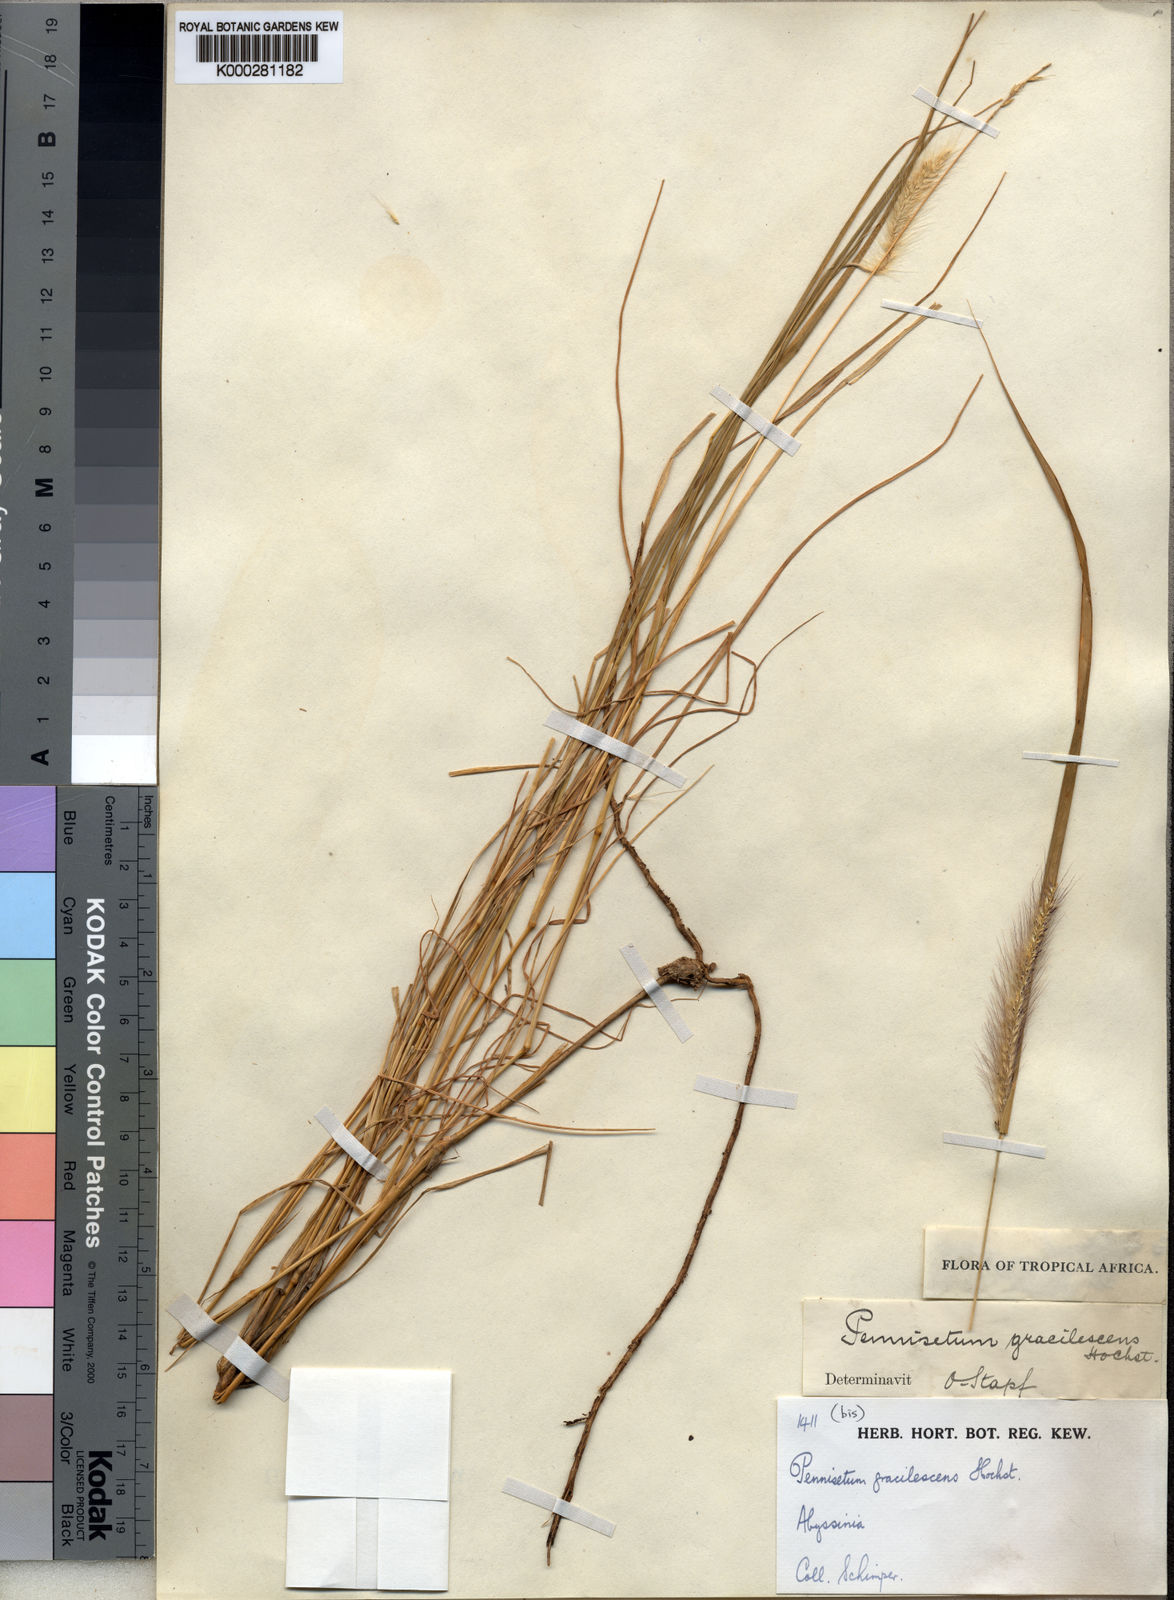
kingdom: Plantae
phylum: Tracheophyta
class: Liliopsida
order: Poales
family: Poaceae
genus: Cenchrus
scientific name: Cenchrus gracilescens
